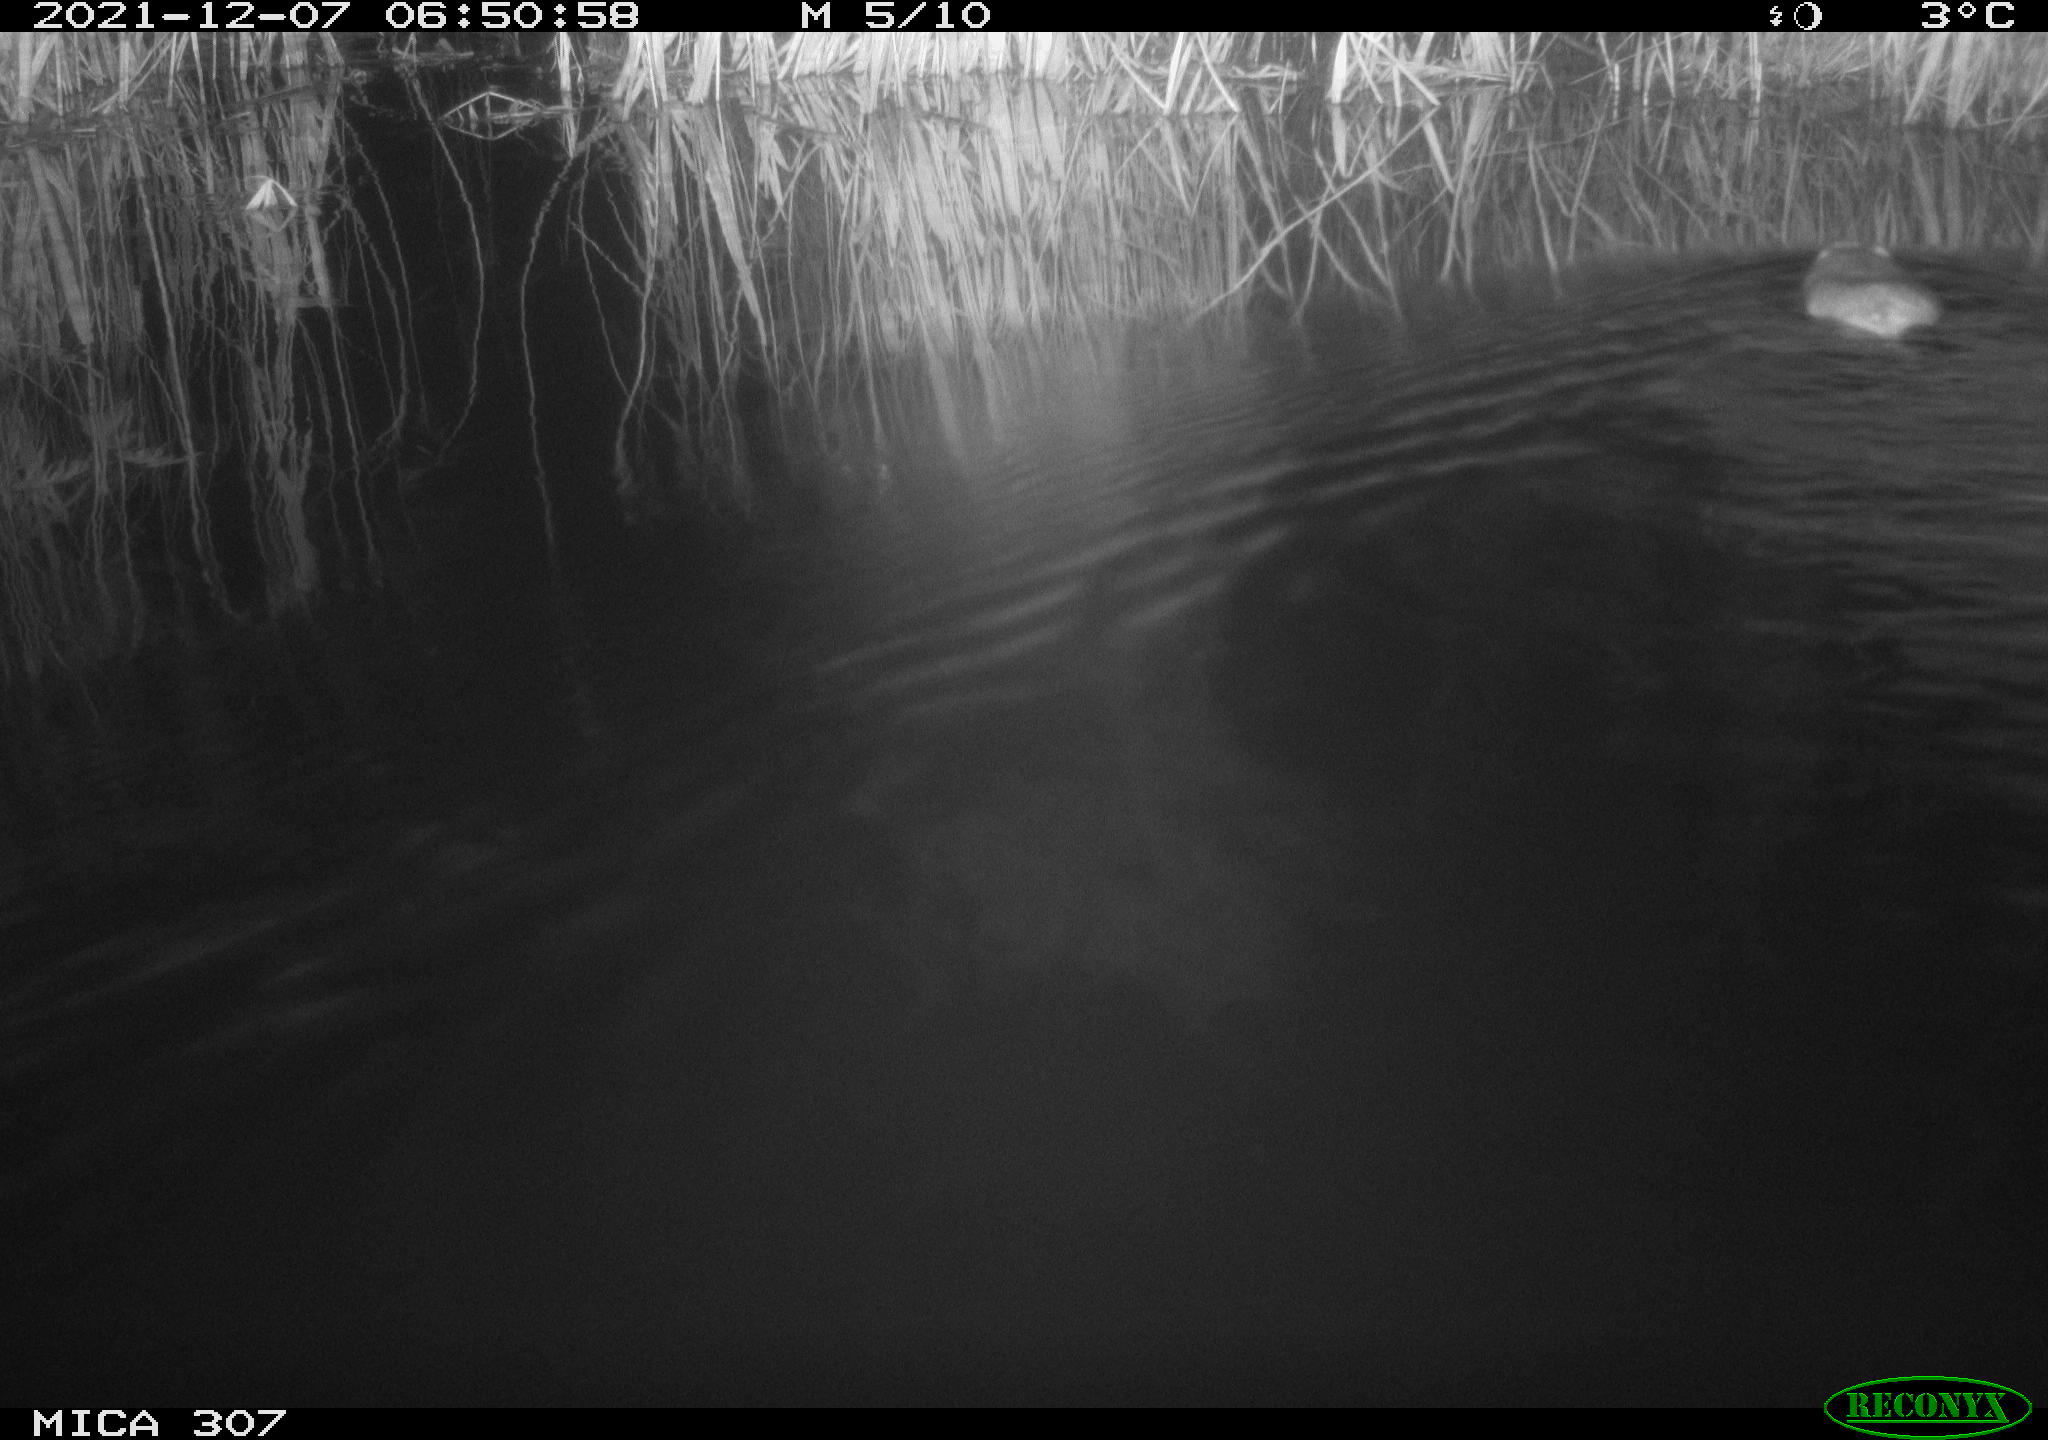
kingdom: Animalia
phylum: Chordata
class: Mammalia
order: Rodentia
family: Muridae
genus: Rattus
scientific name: Rattus norvegicus
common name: Brown rat
